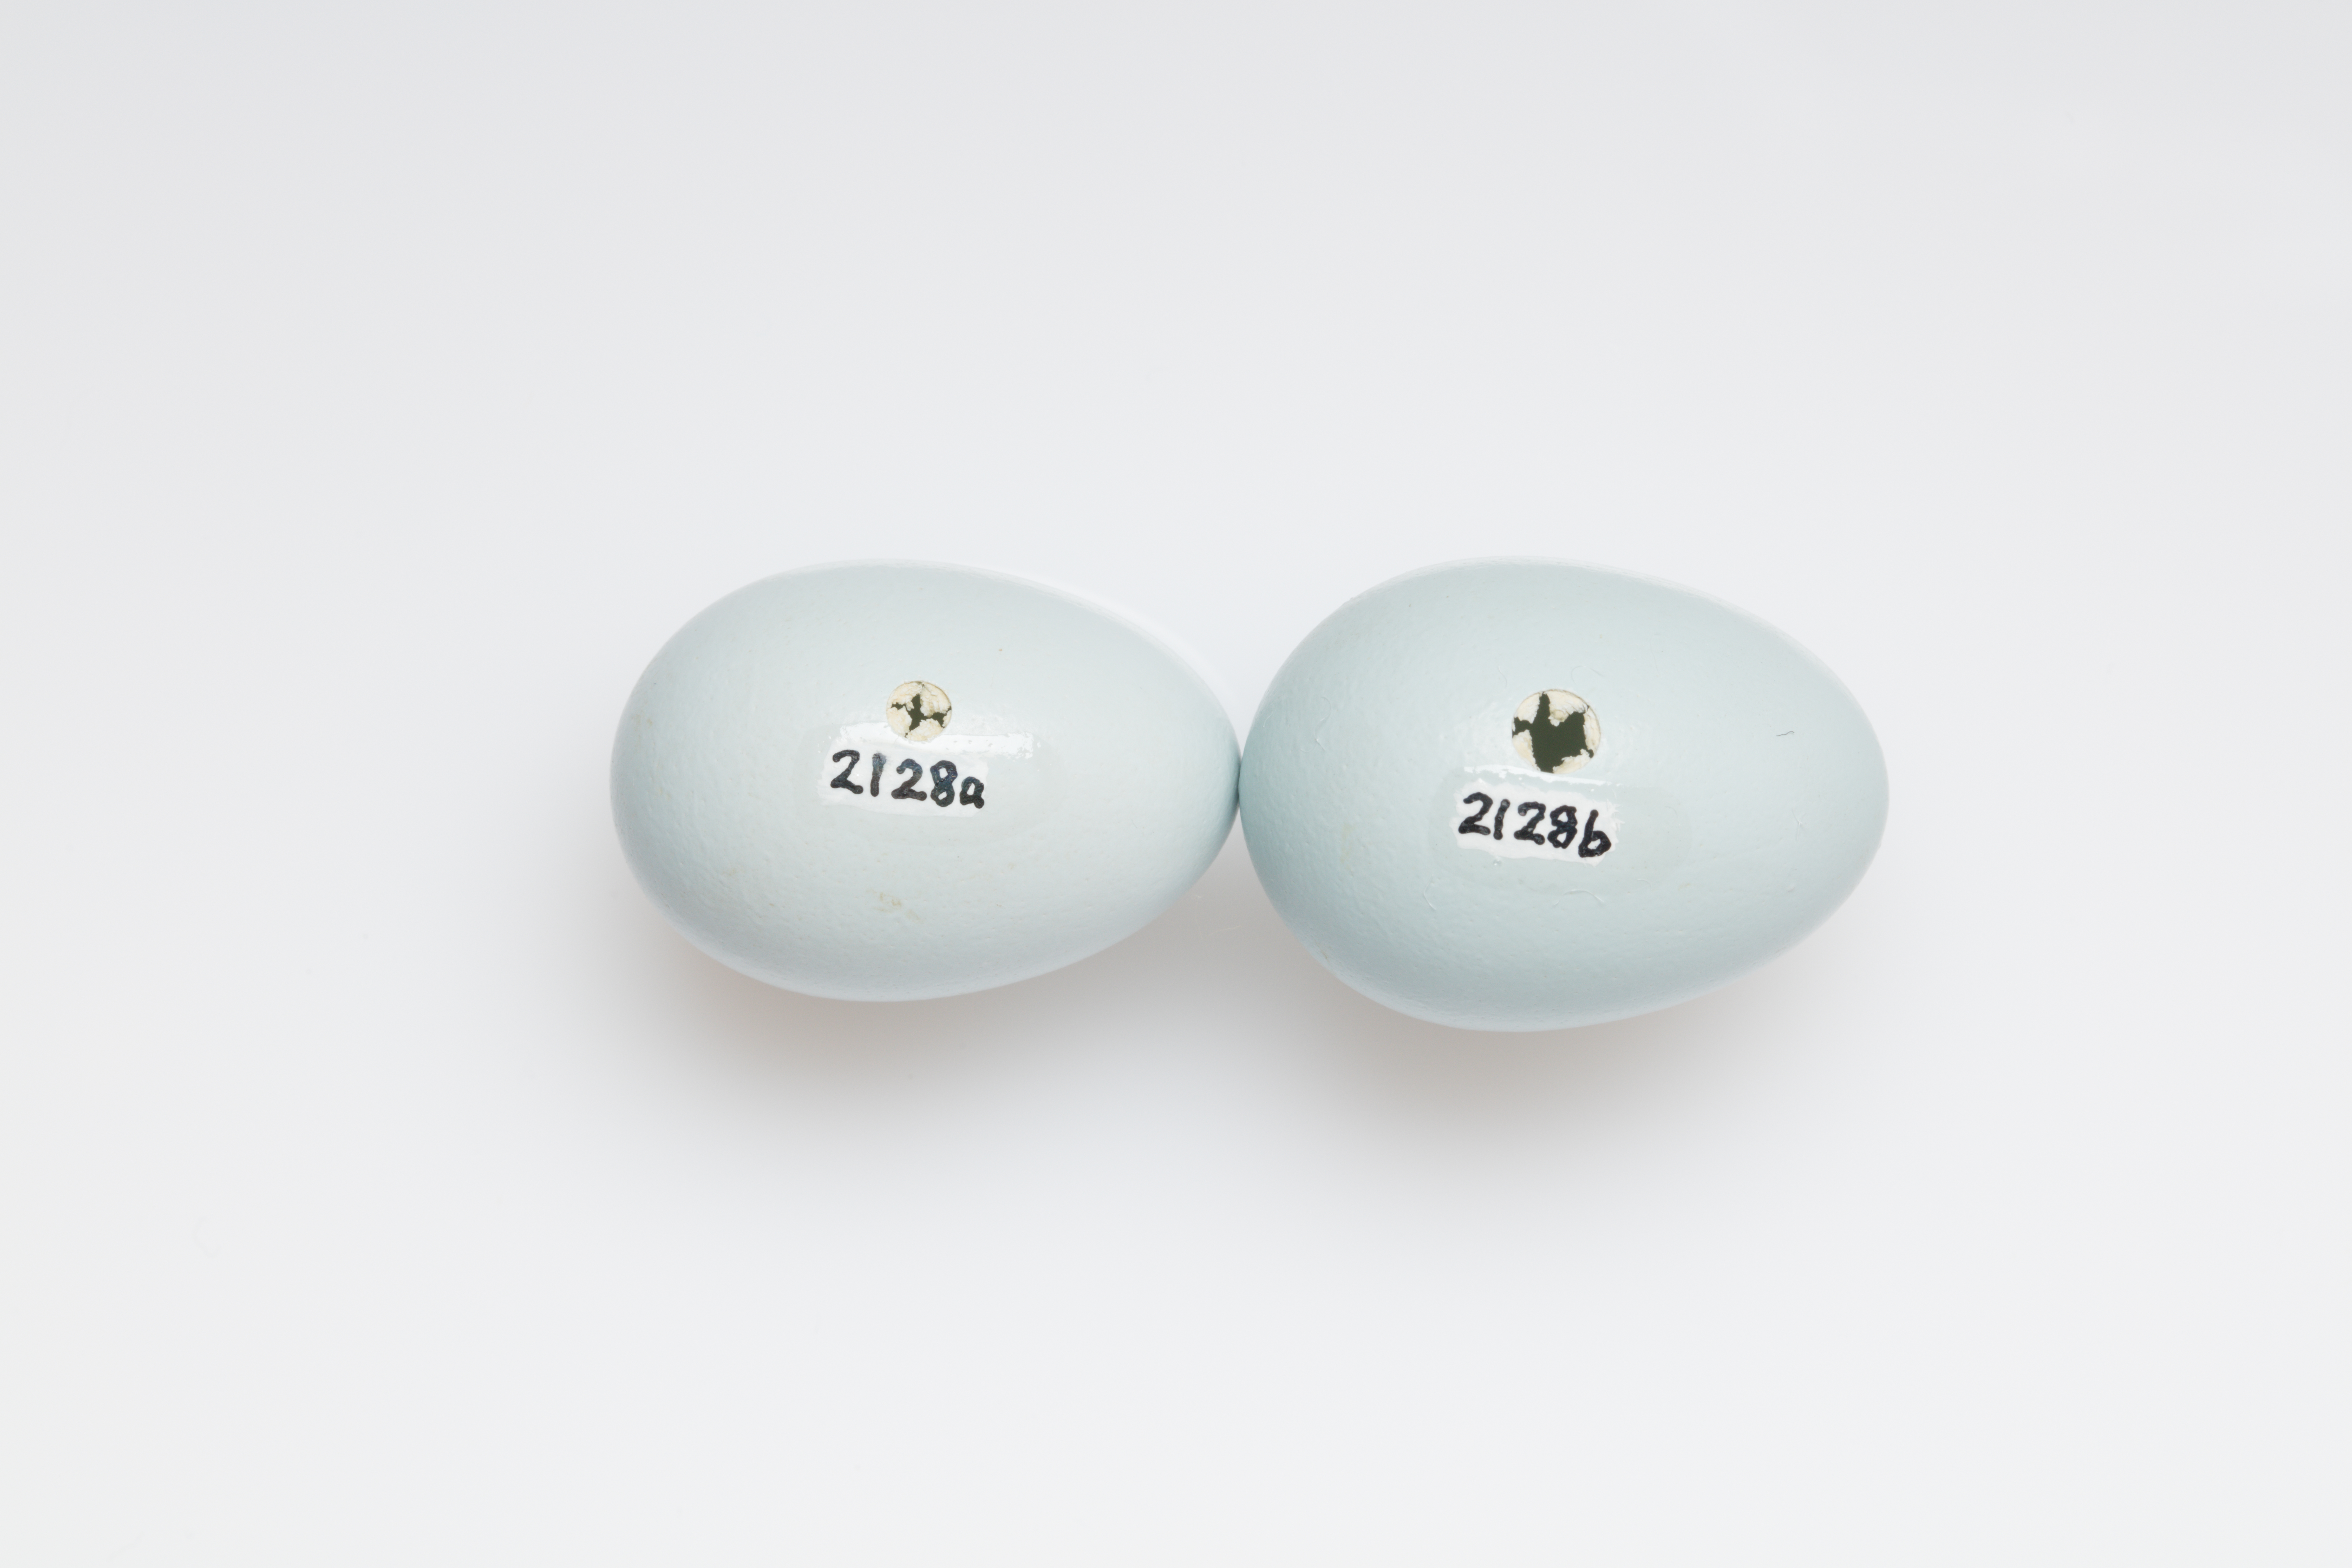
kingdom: Animalia
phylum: Chordata
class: Aves
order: Passeriformes
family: Sturnidae
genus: Acridotheres
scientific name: Acridotheres tristis
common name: Common myna
